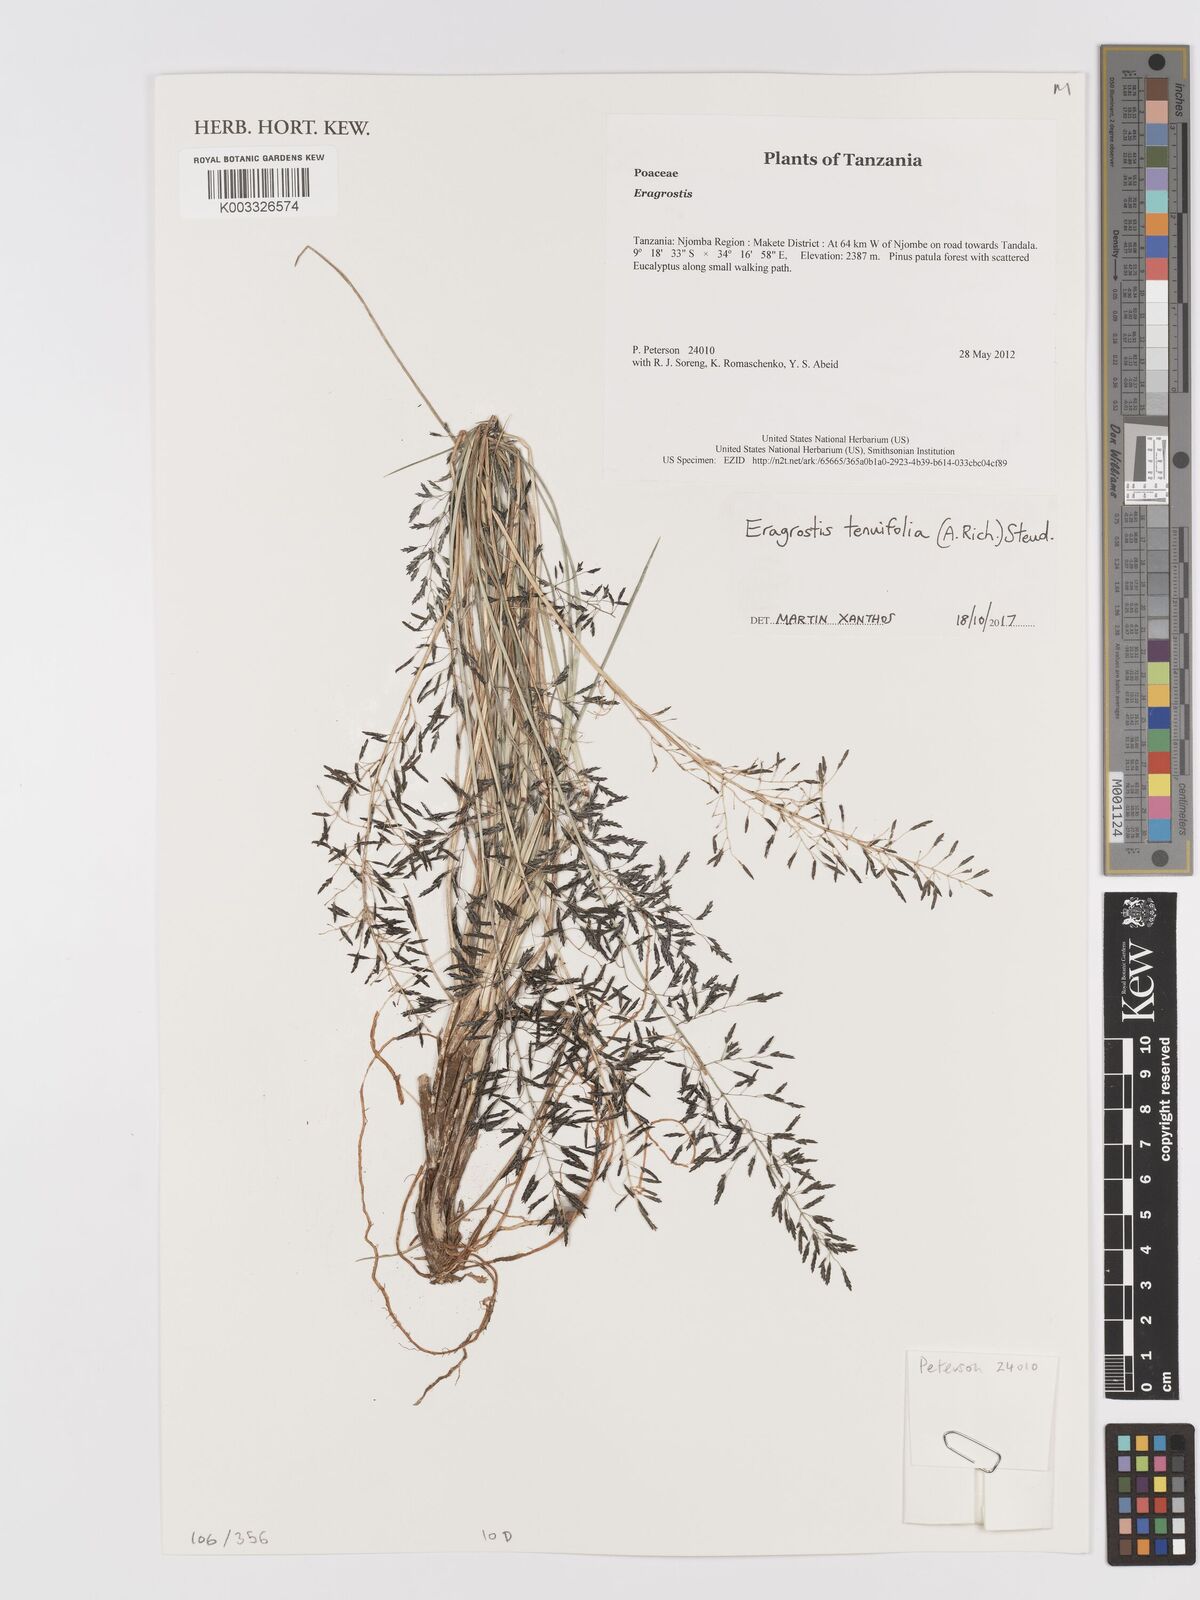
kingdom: Plantae
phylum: Tracheophyta
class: Liliopsida
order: Poales
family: Poaceae
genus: Eragrostis
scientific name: Eragrostis tenuifolia
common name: Elastic grass
